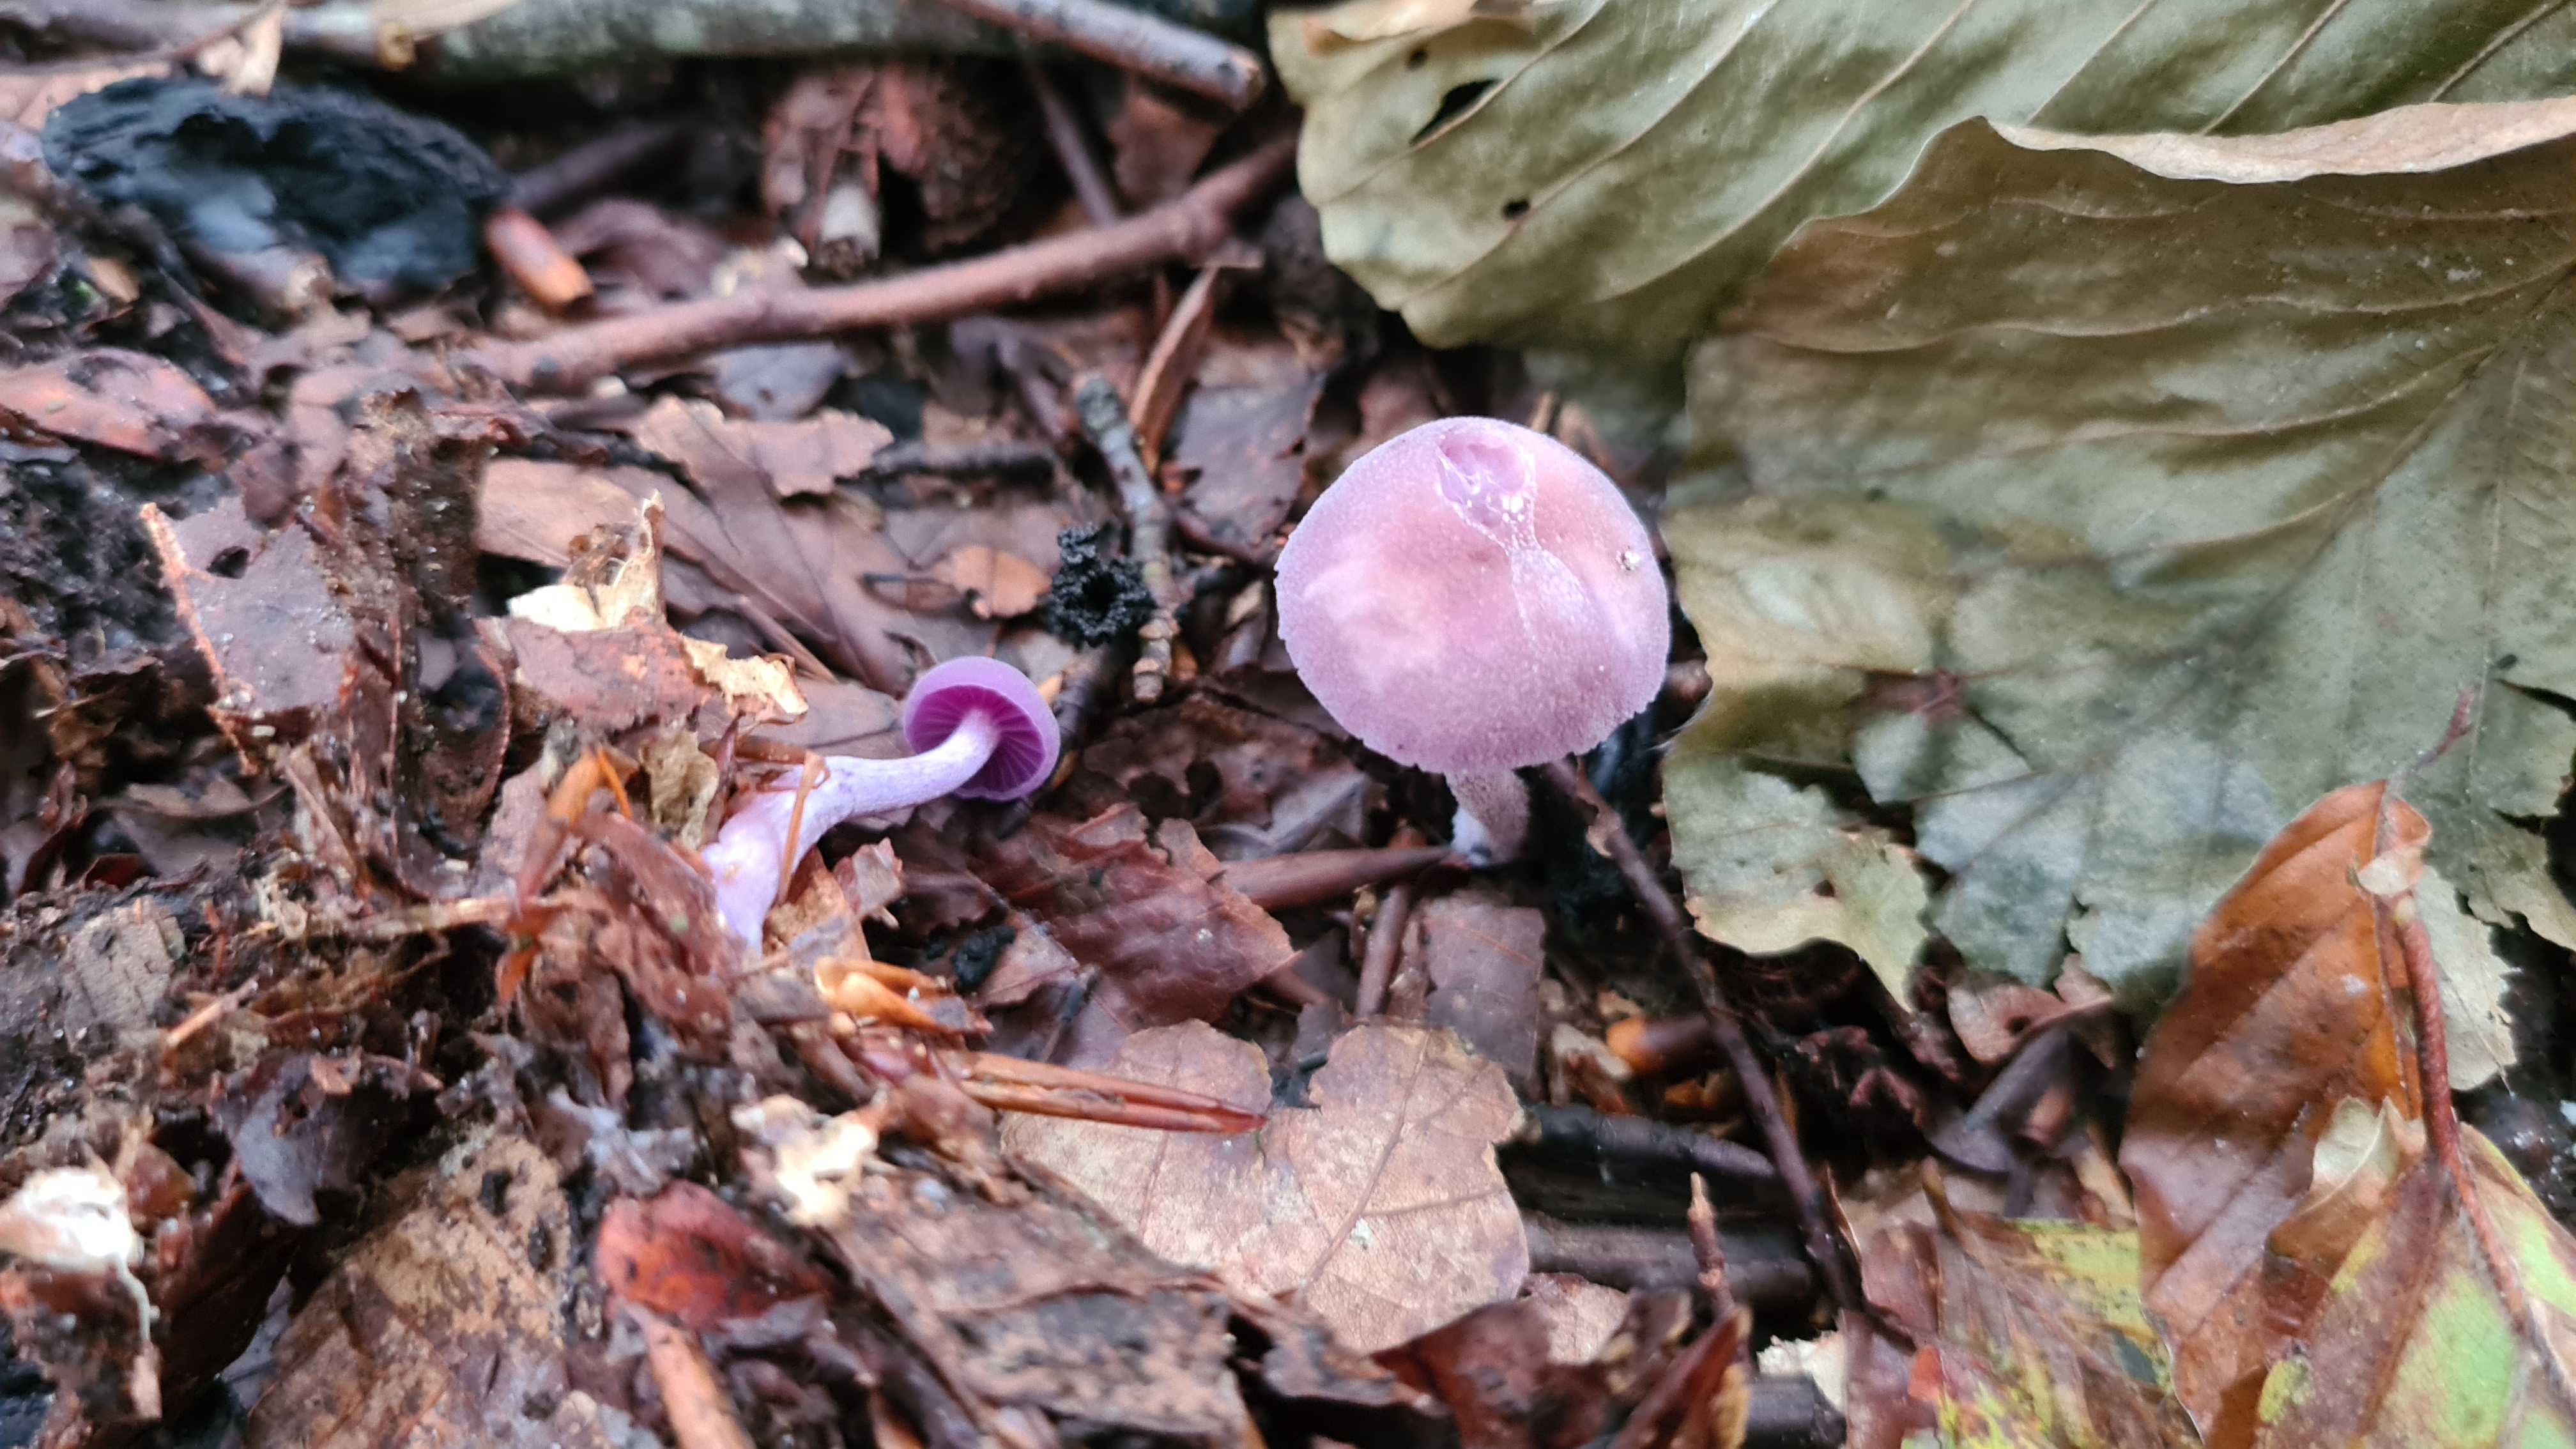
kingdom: Fungi
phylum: Basidiomycota
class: Agaricomycetes
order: Agaricales
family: Hydnangiaceae
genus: Laccaria
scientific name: Laccaria amethystina
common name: violet ametysthat
